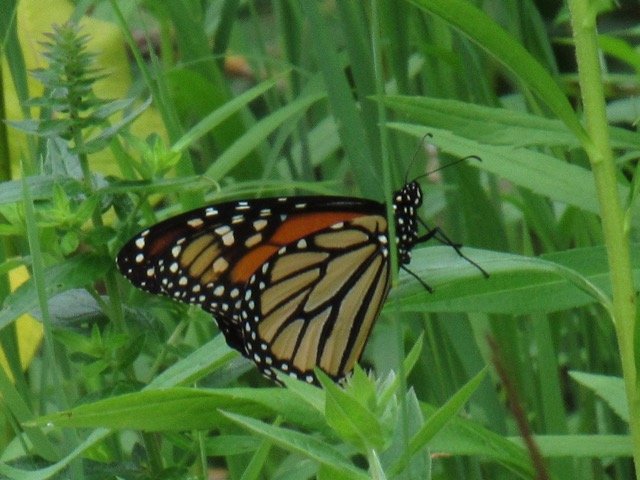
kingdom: Animalia
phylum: Arthropoda
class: Insecta
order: Lepidoptera
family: Nymphalidae
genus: Danaus
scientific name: Danaus plexippus
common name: Monarch
